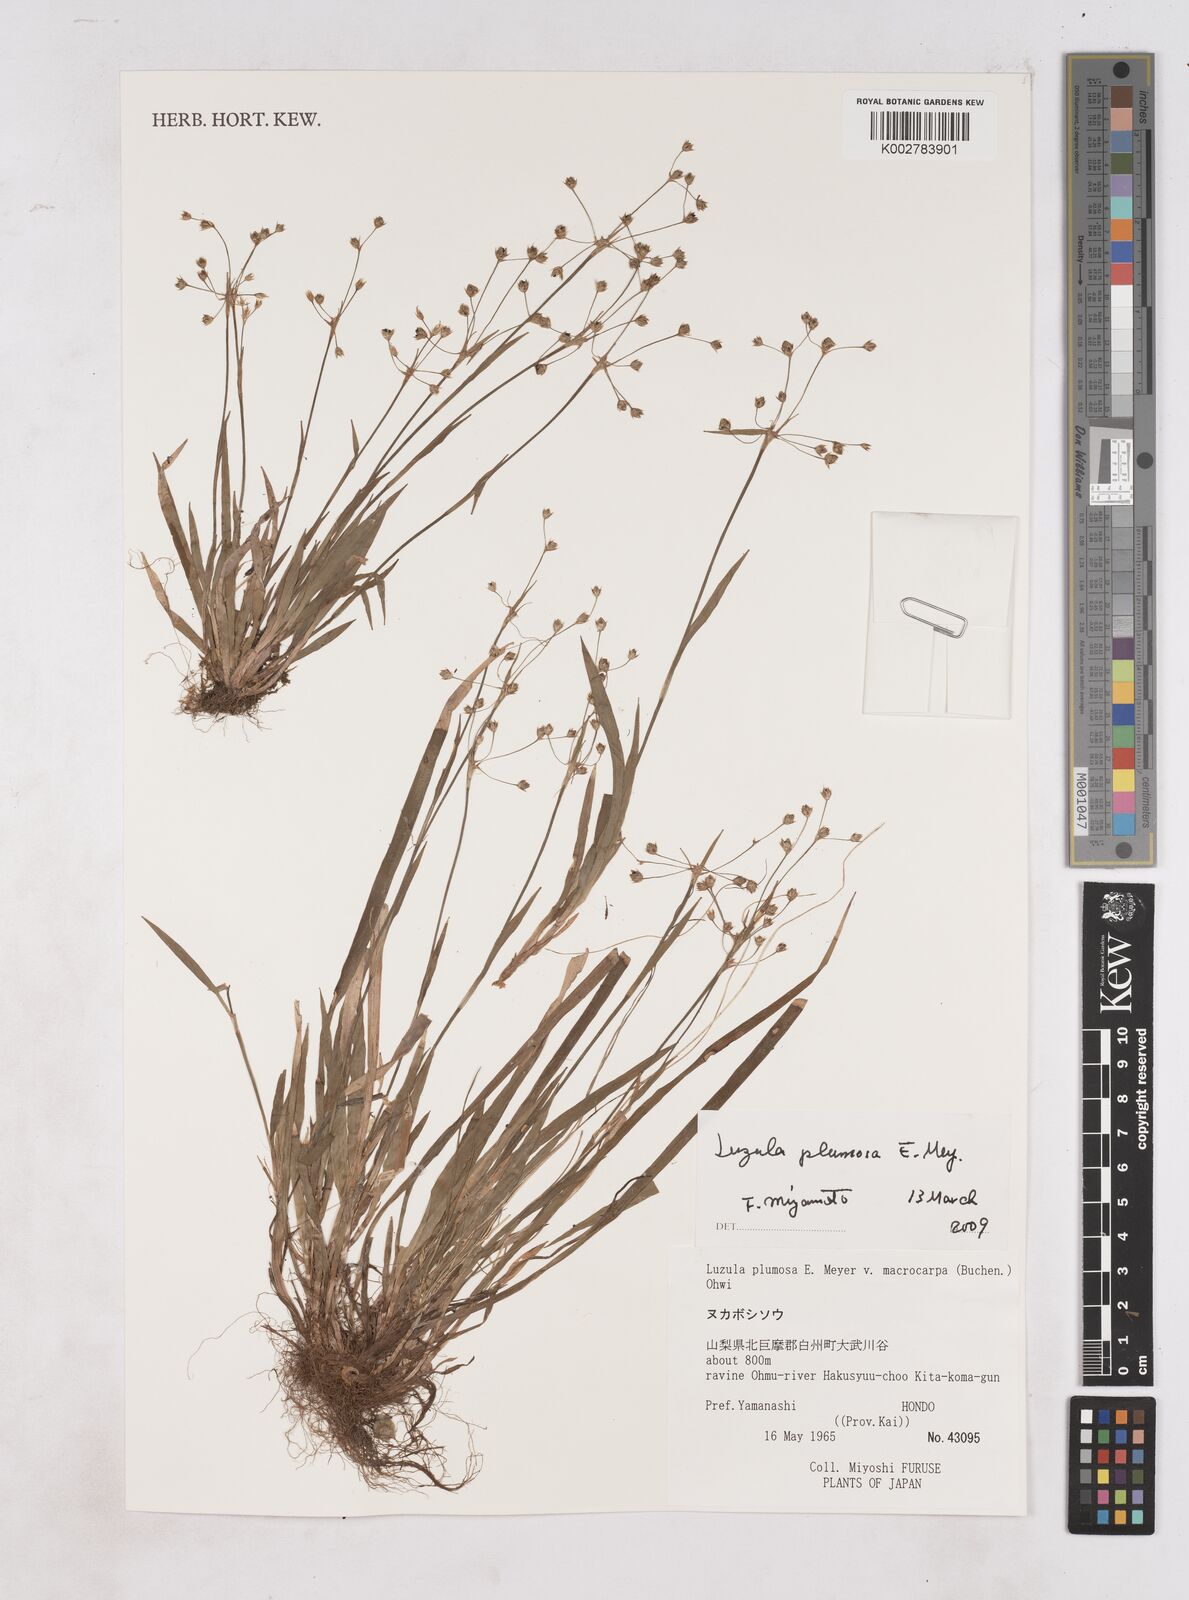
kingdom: Plantae
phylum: Tracheophyta
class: Liliopsida
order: Poales
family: Juncaceae
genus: Luzula
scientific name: Luzula plumosa
